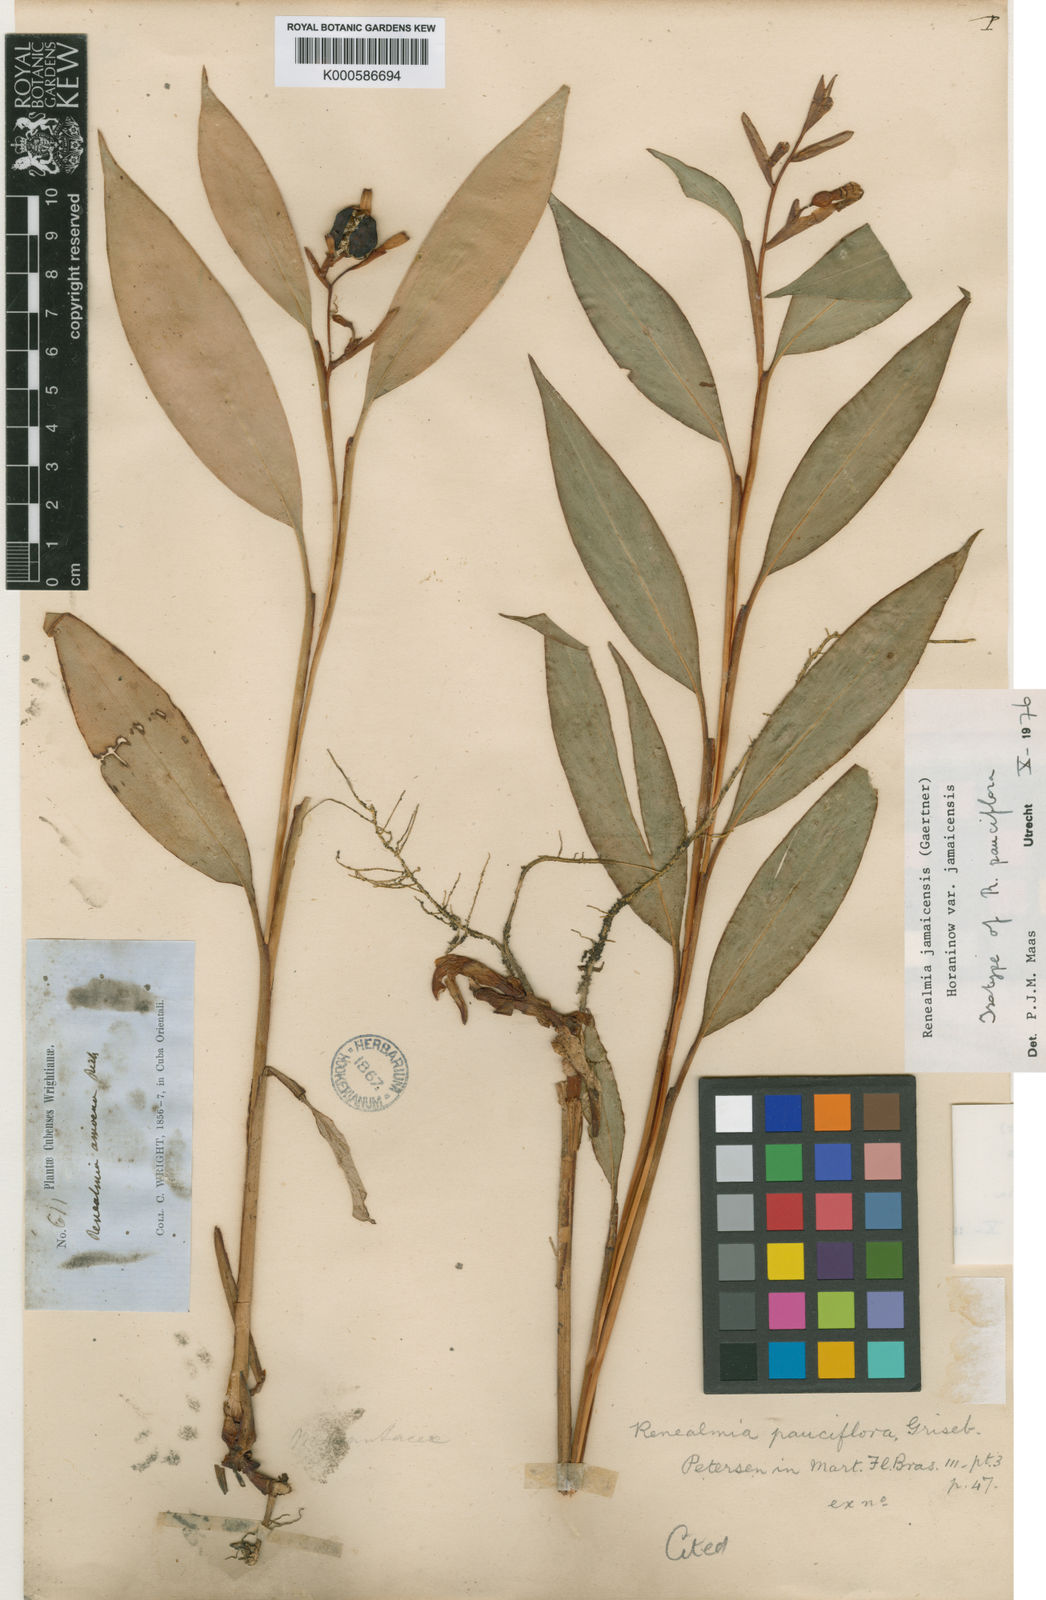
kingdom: Plantae
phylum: Tracheophyta
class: Liliopsida
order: Zingiberales
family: Zingiberaceae
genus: Renealmia
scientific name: Renealmia jamaicensis
